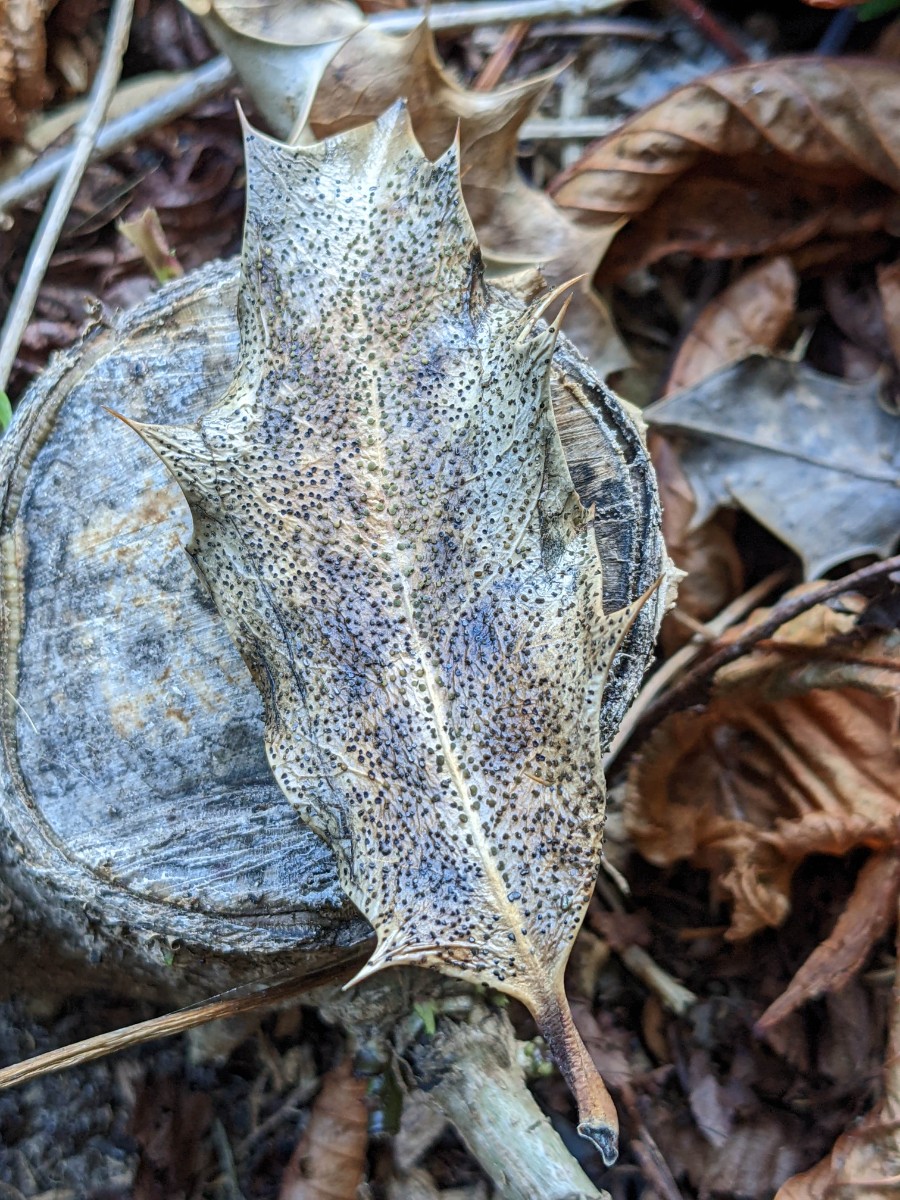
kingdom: Fungi
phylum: Ascomycota
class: Leotiomycetes
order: Helotiales
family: Cenangiaceae
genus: Trochila
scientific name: Trochila ilicina
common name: kristtorn-lågskive
